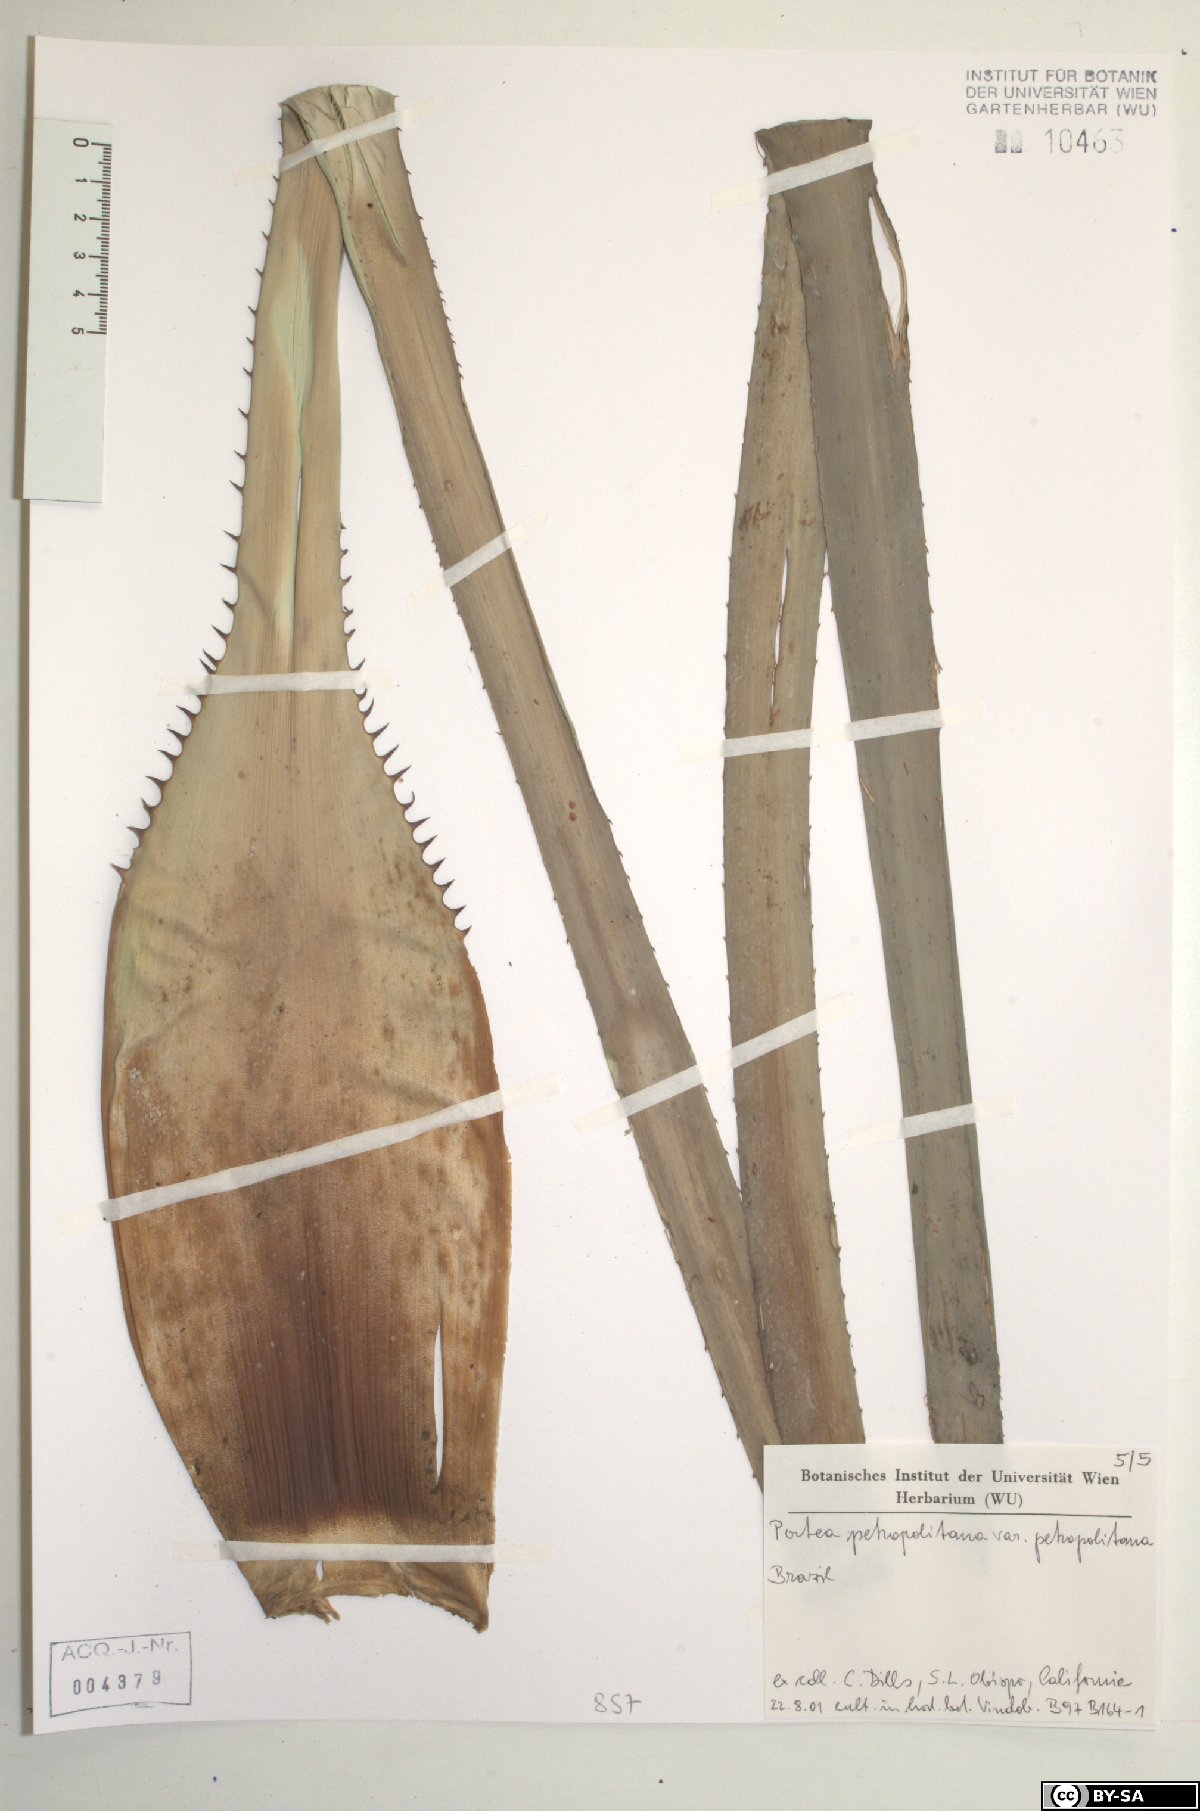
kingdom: Plantae
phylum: Tracheophyta
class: Liliopsida
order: Poales
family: Bromeliaceae
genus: Portea
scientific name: Portea petropolitana
